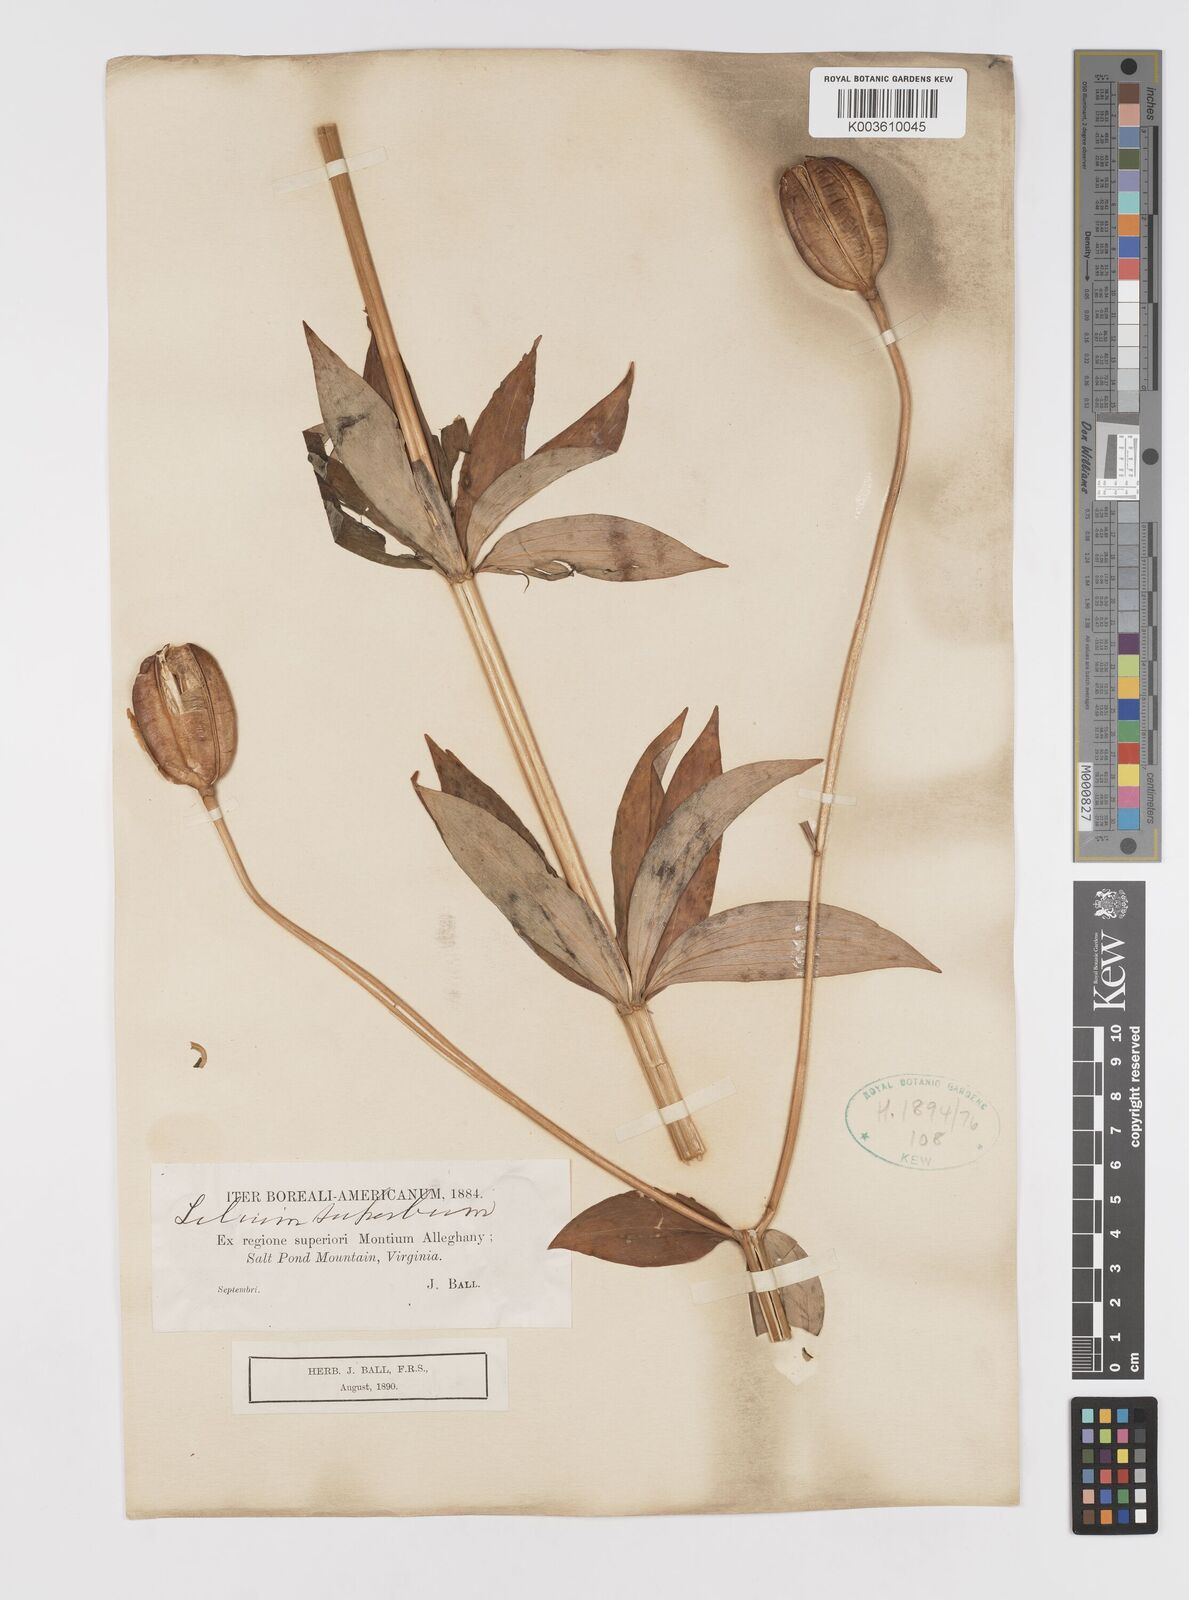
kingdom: Plantae
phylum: Tracheophyta
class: Liliopsida
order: Liliales
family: Liliaceae
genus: Lilium
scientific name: Lilium superbum
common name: American turk's-cap lily
